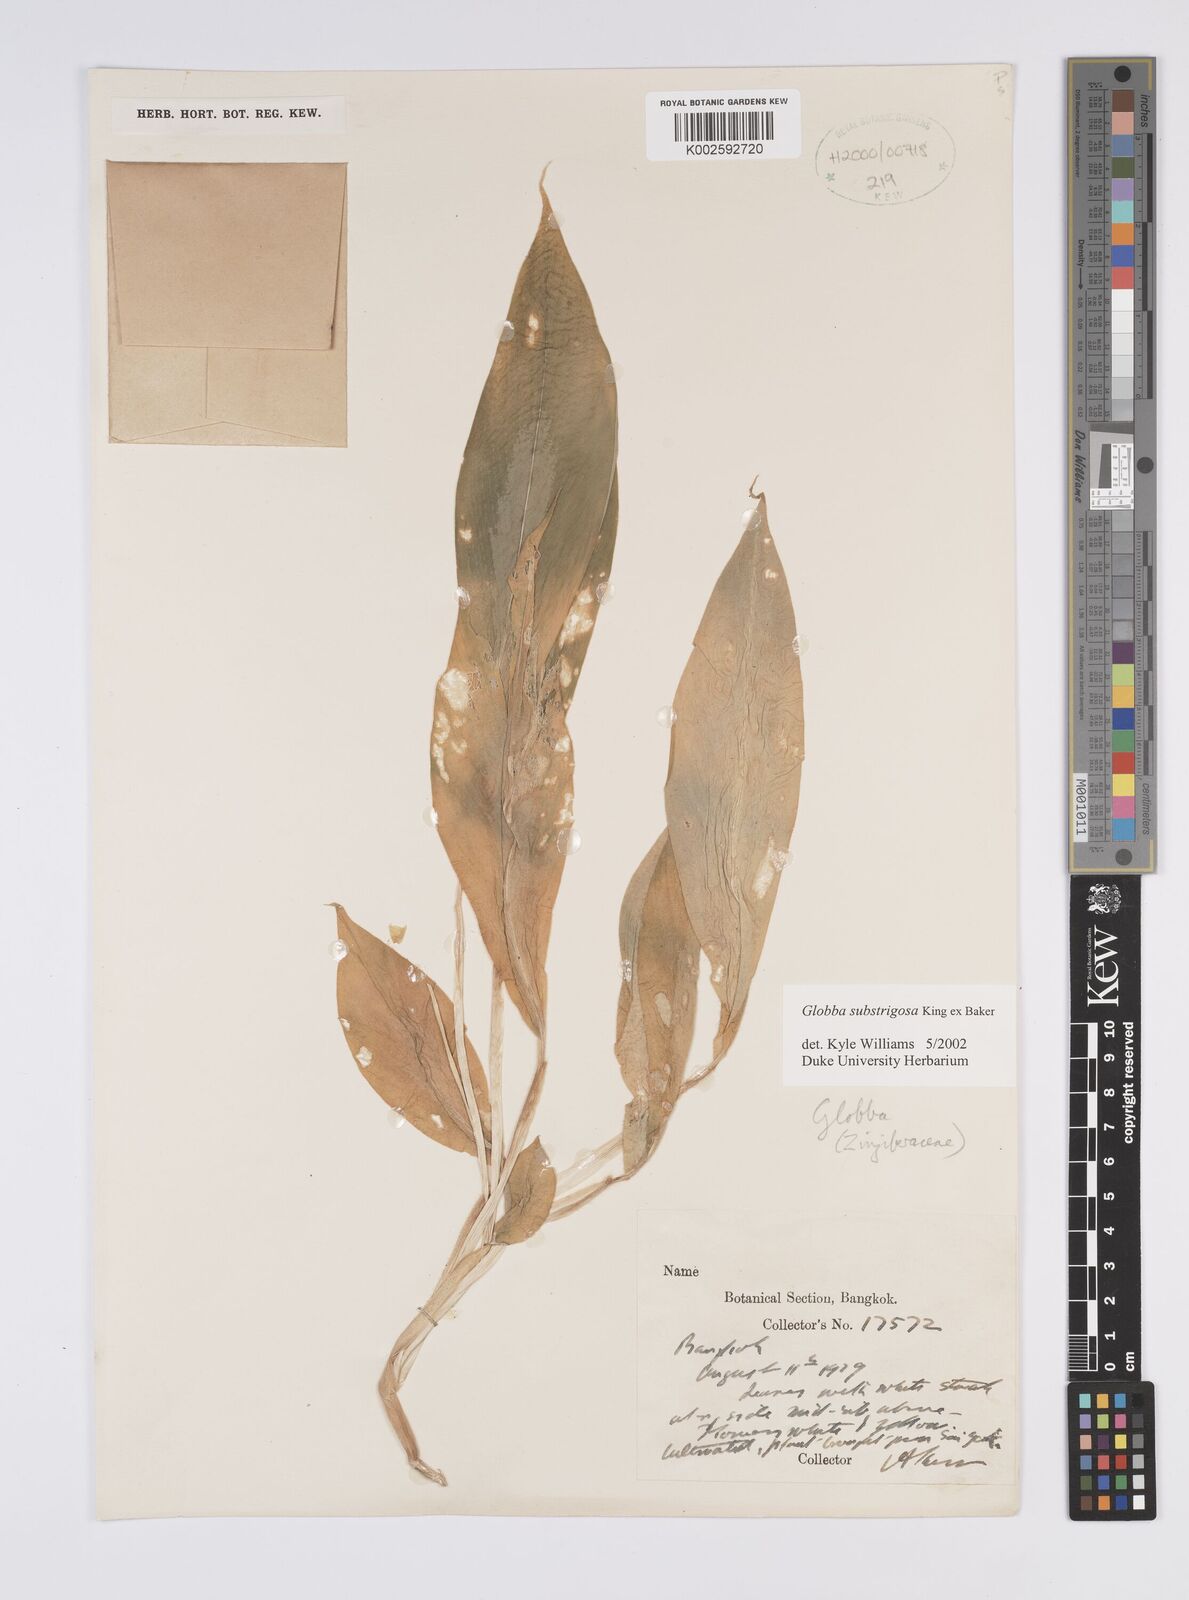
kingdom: Plantae
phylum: Tracheophyta
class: Liliopsida
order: Zingiberales
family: Zingiberaceae
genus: Globba
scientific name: Globba substrigosa
